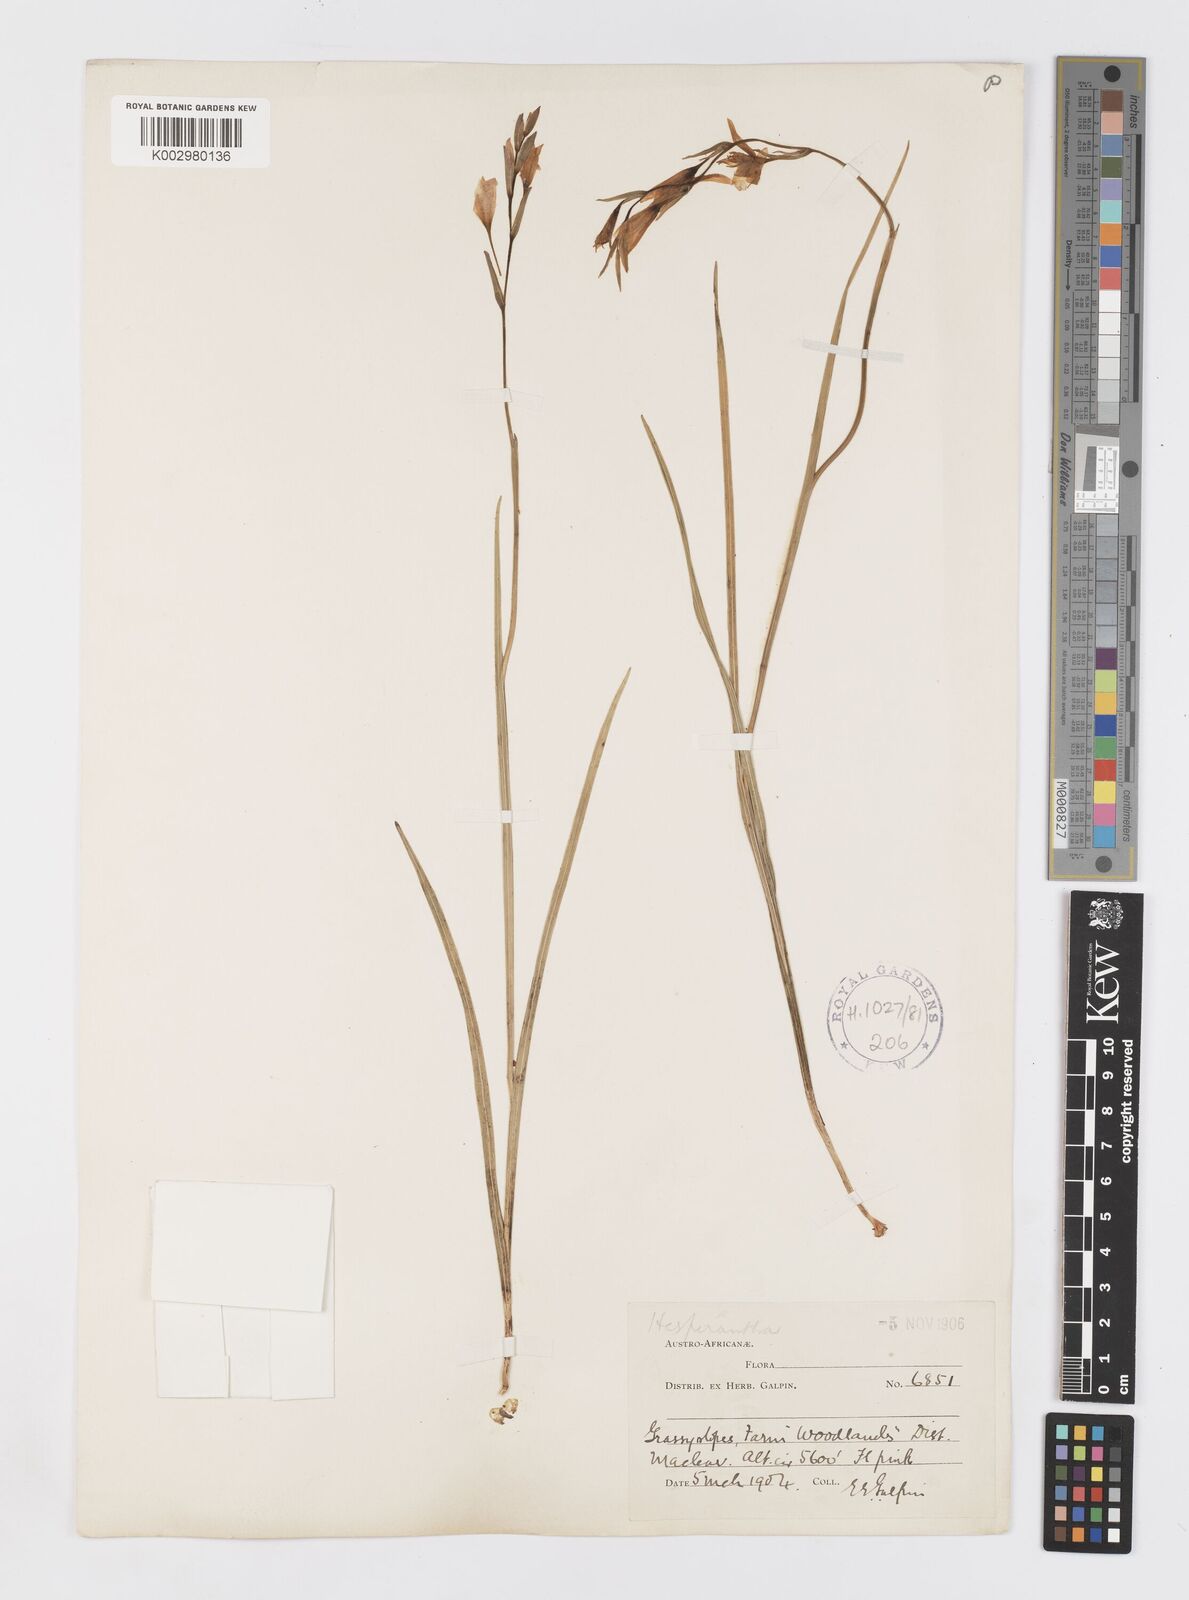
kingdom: Plantae
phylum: Tracheophyta
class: Liliopsida
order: Asparagales
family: Iridaceae
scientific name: Iridaceae
